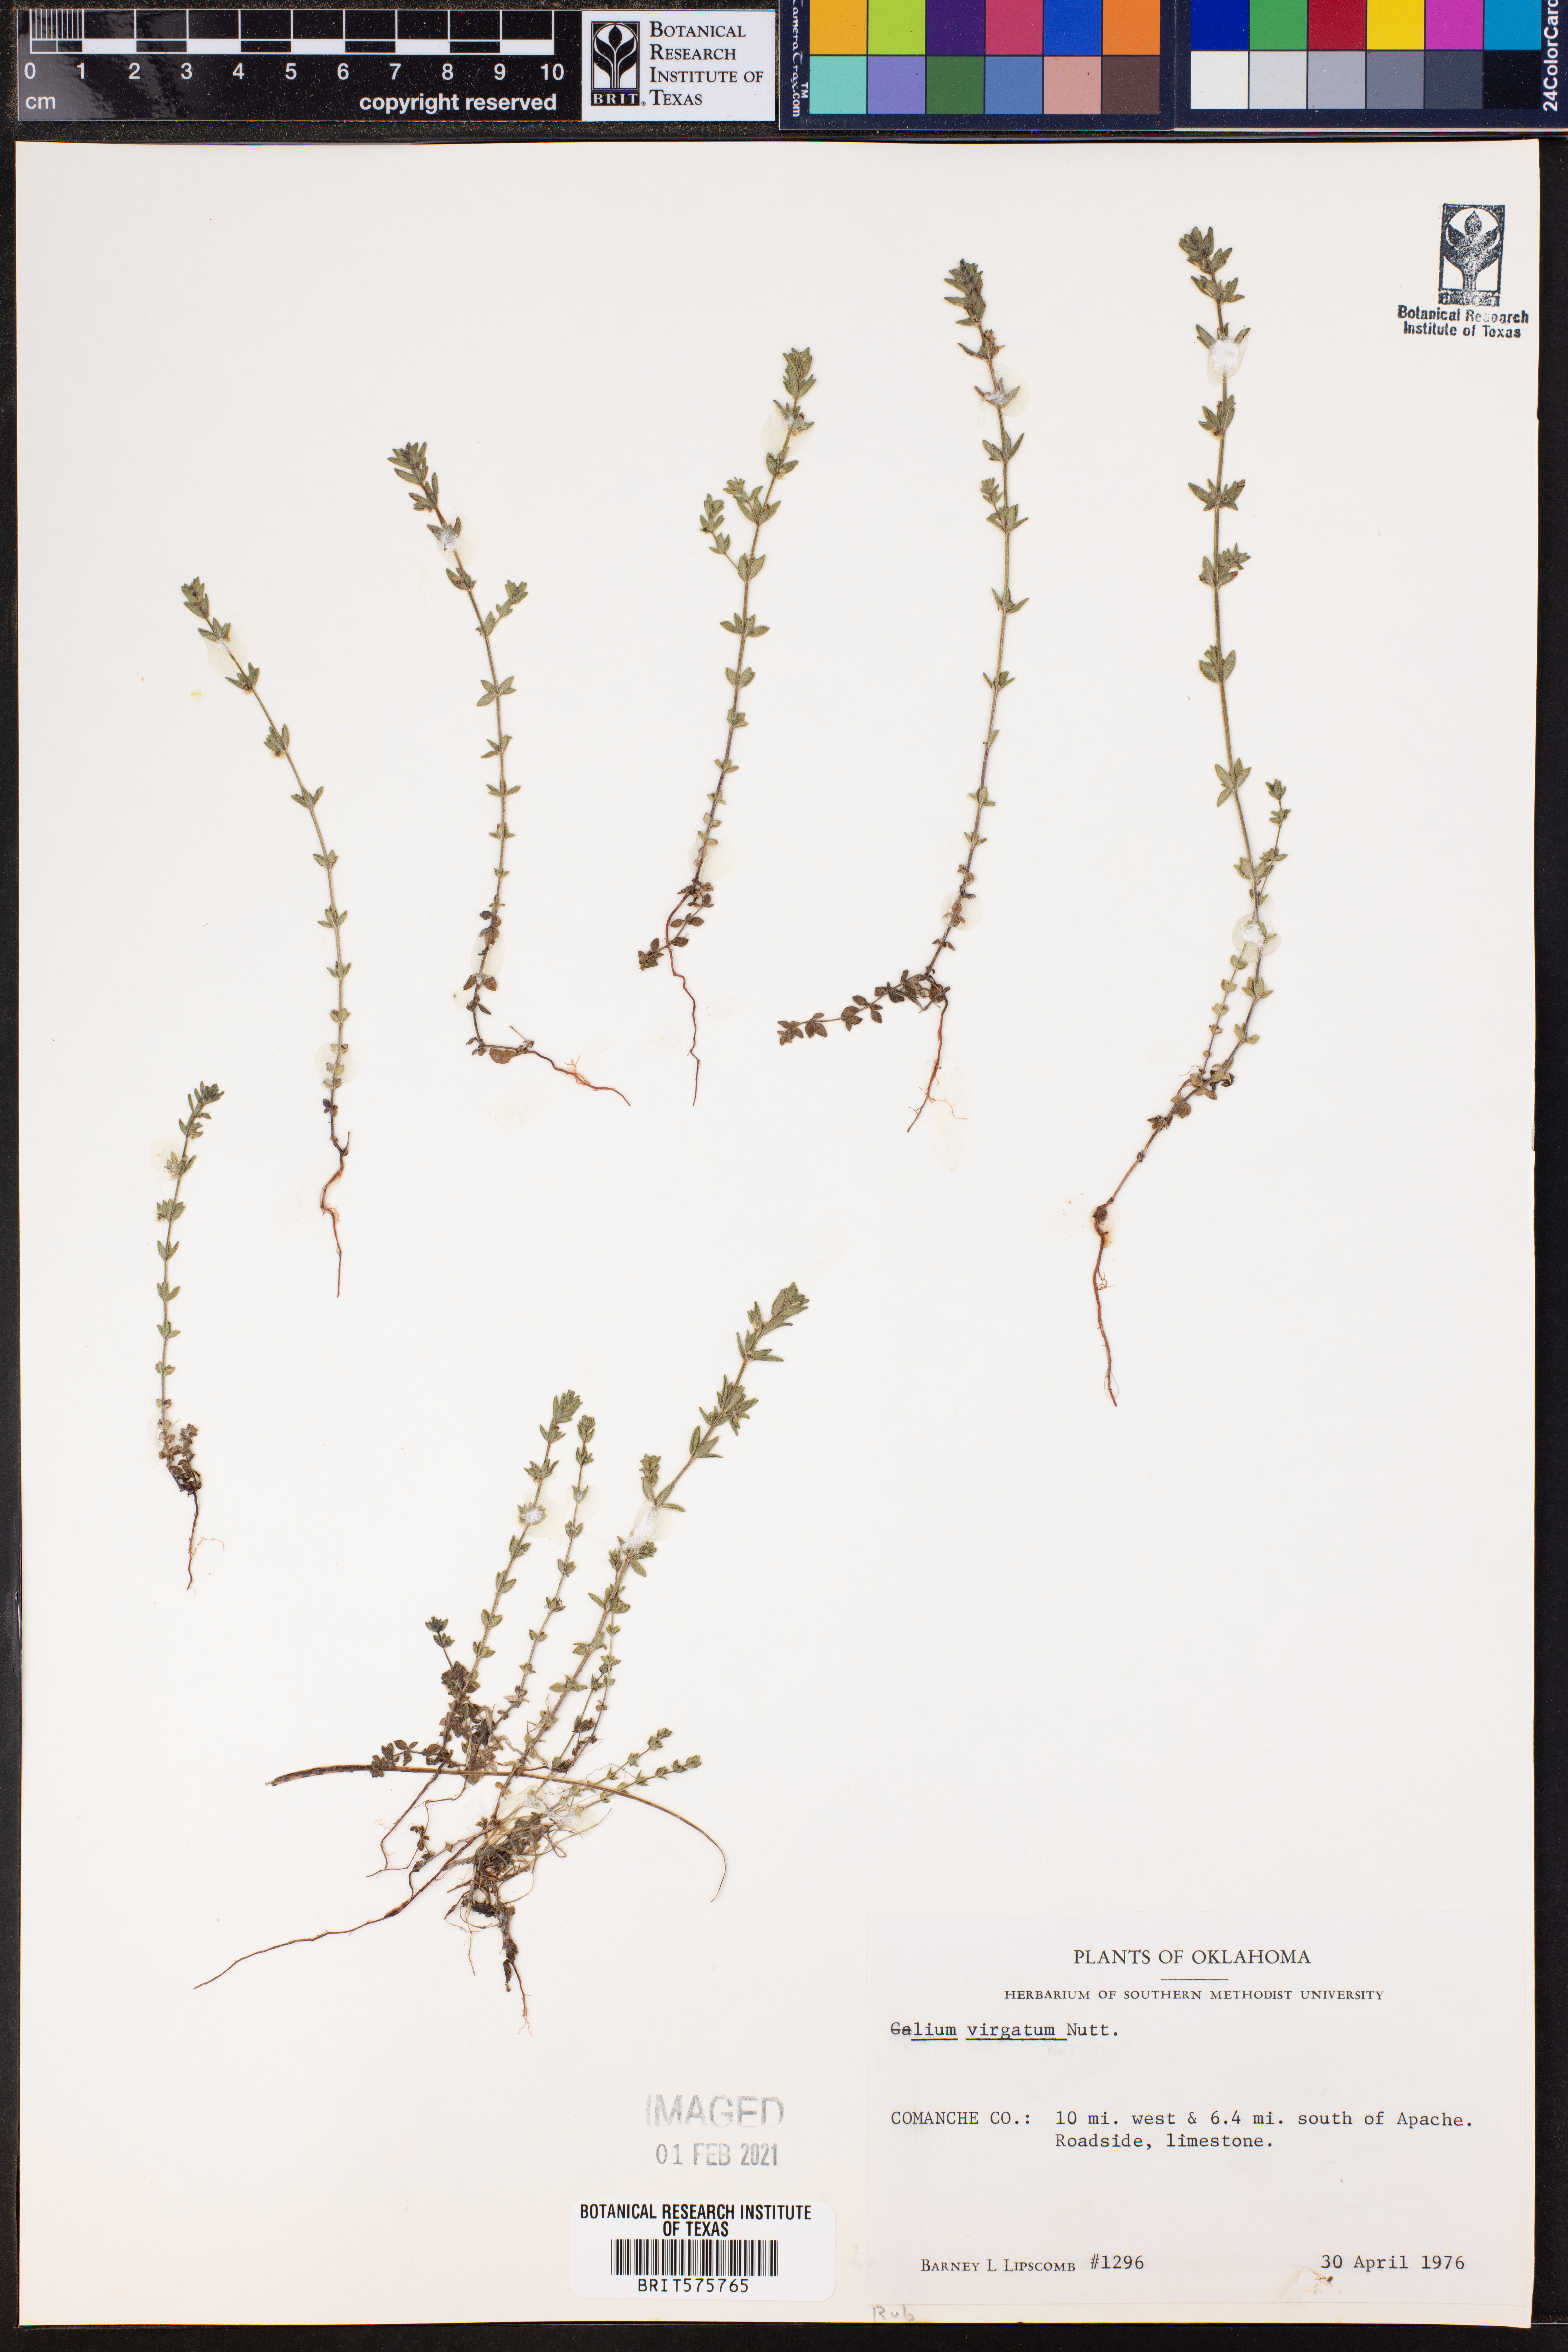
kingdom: Plantae
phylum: Tracheophyta
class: Magnoliopsida
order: Gentianales
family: Rubiaceae
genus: Galium
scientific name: Galium virgatum
